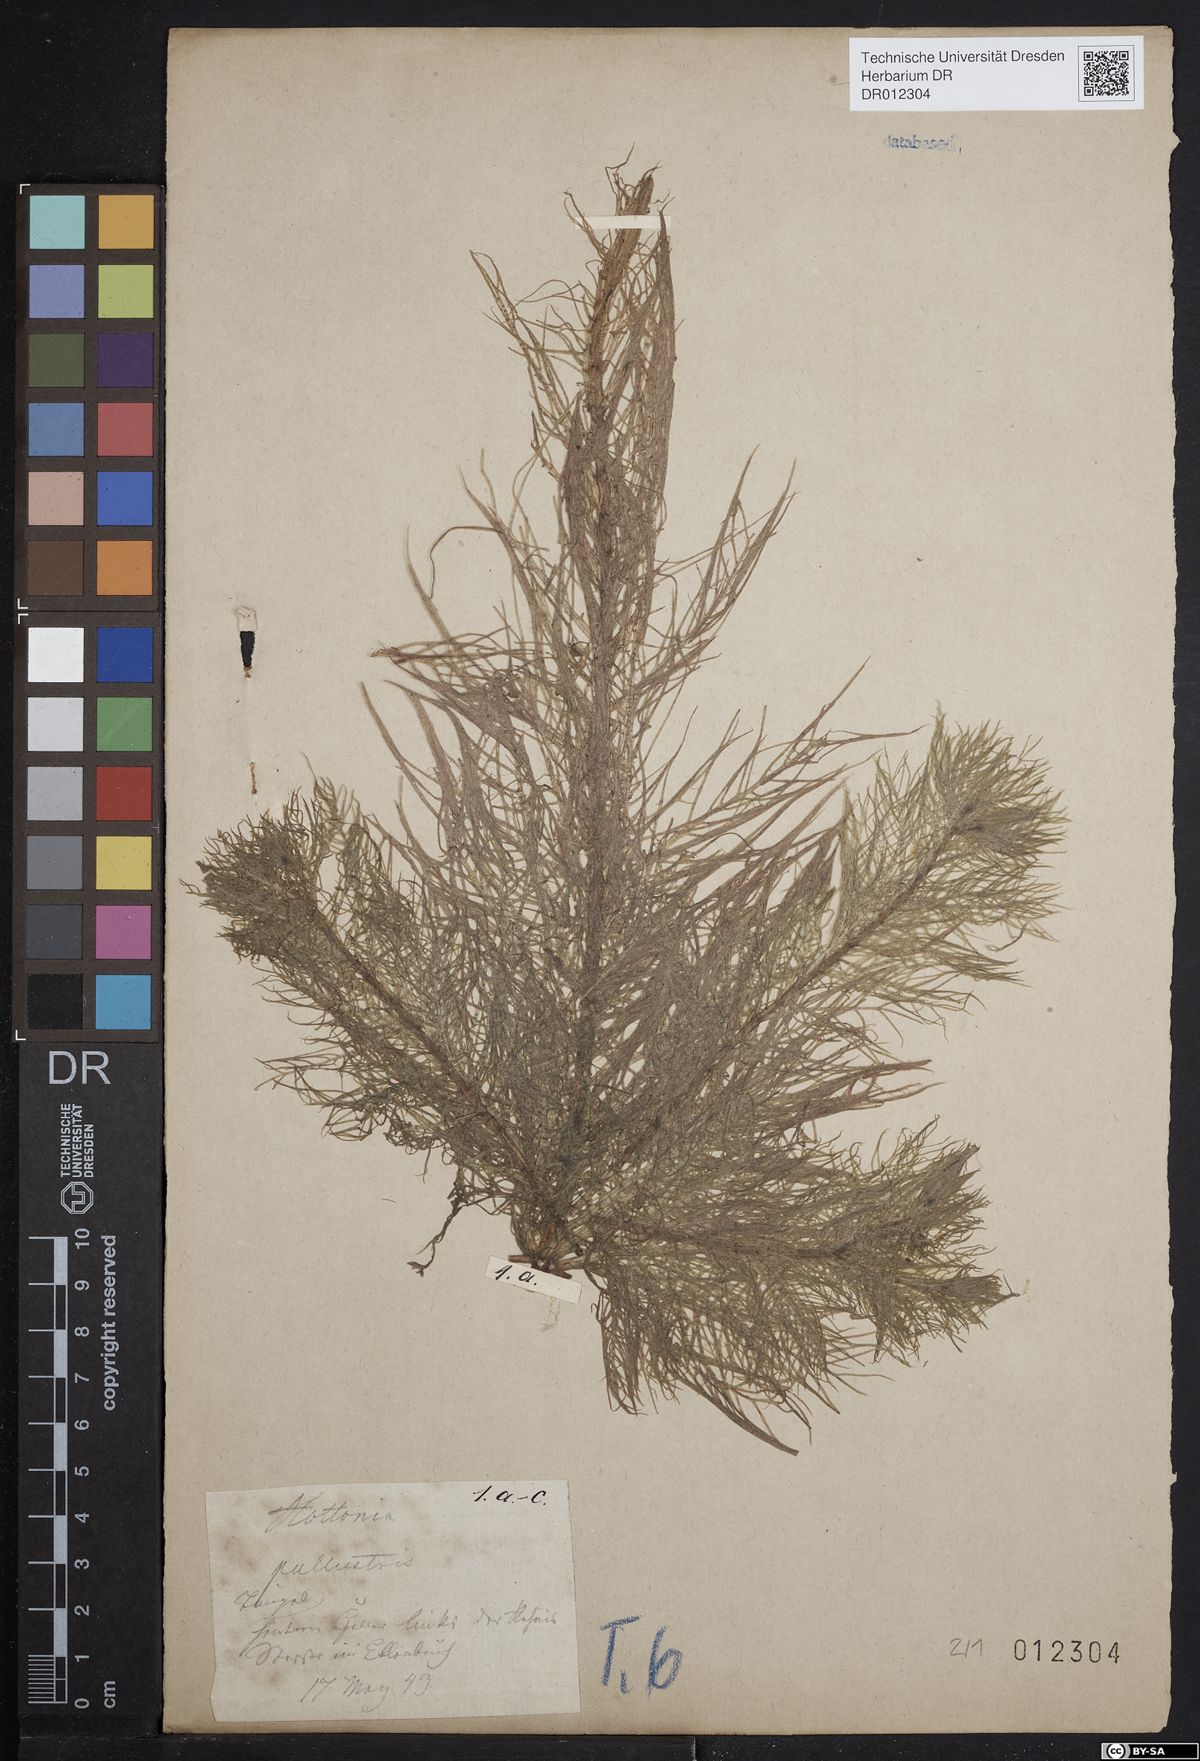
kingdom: Plantae
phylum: Tracheophyta
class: Magnoliopsida
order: Ericales
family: Primulaceae
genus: Hottonia
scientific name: Hottonia palustris
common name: Water-violet
